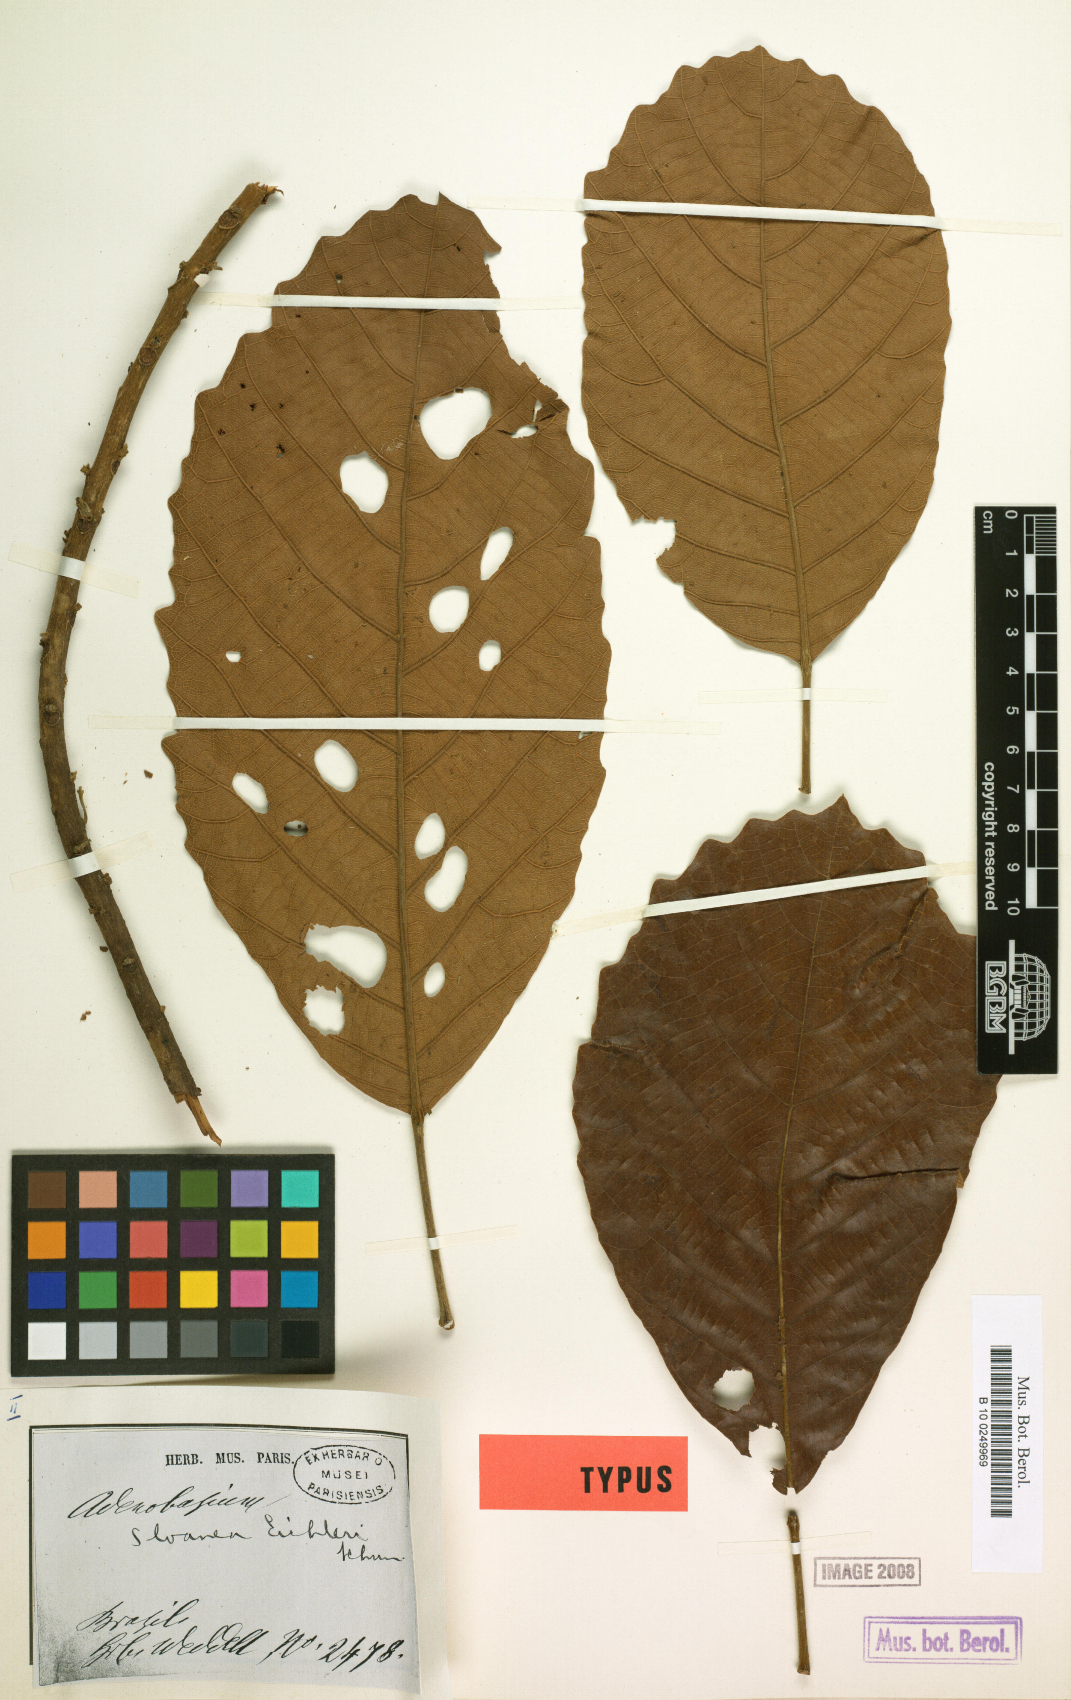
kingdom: Plantae
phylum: Tracheophyta
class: Magnoliopsida
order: Oxalidales
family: Elaeocarpaceae
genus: Sloanea
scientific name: Sloanea eichleri
